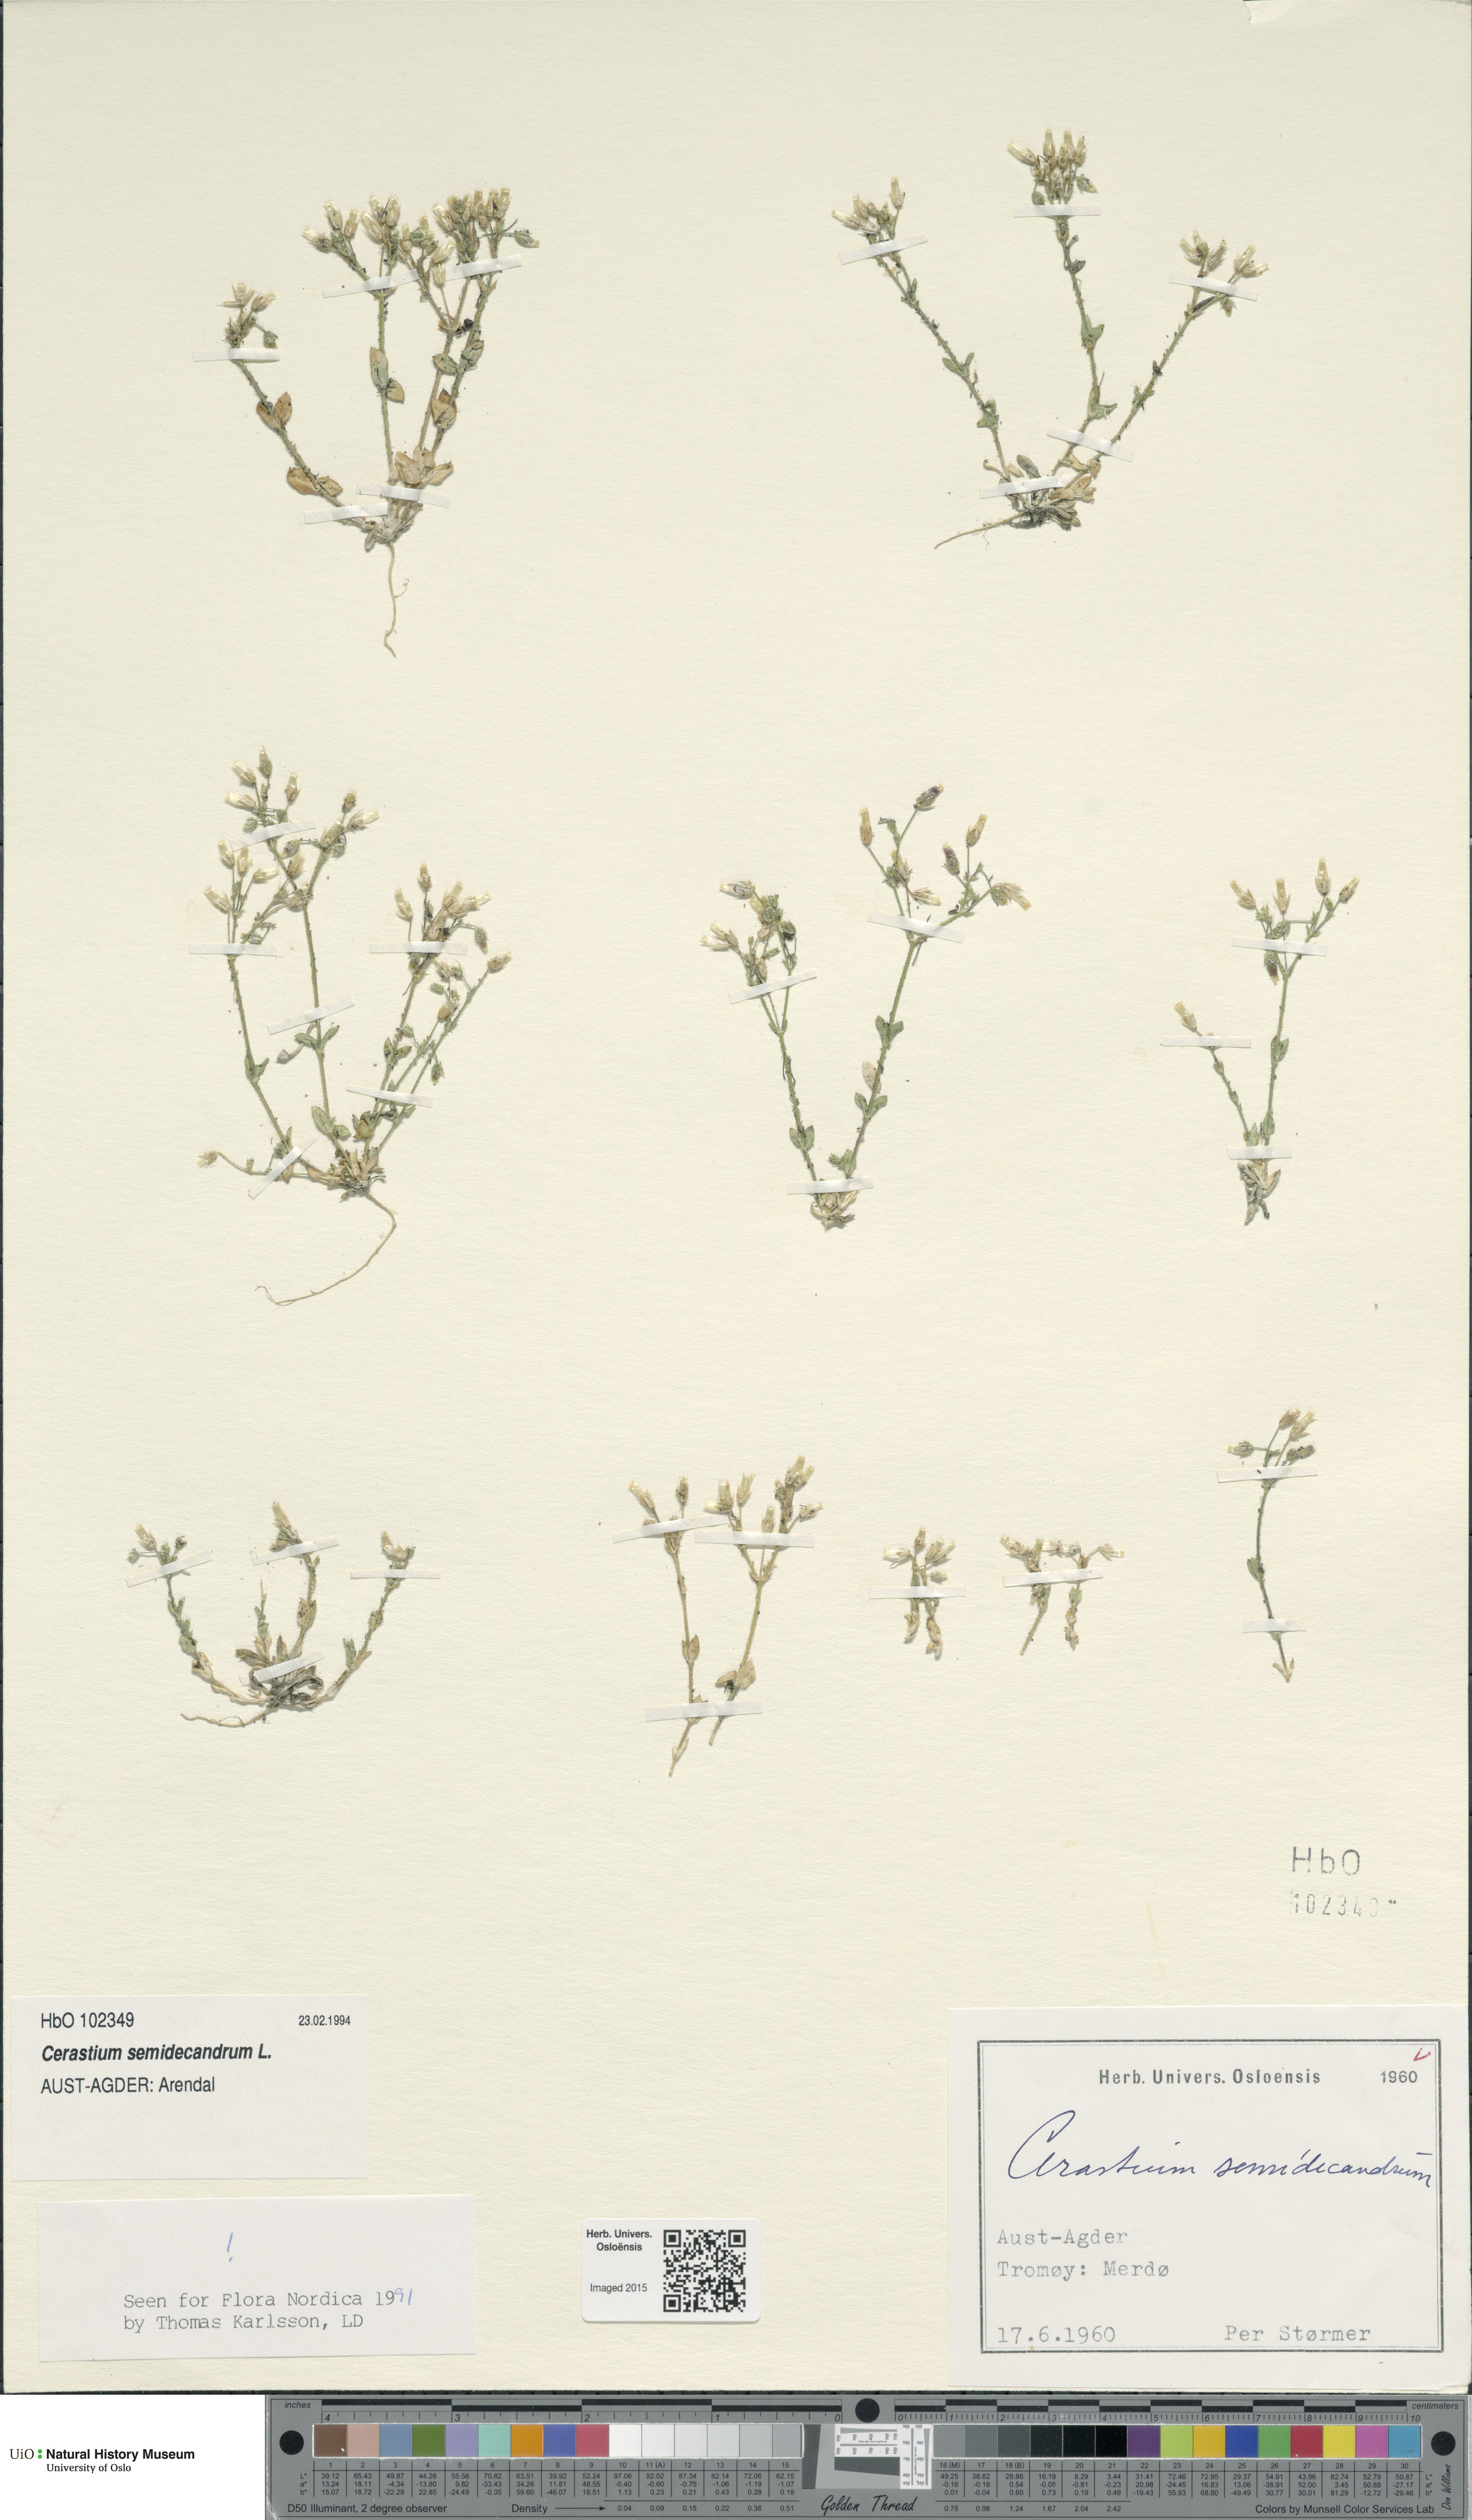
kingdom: Plantae
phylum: Tracheophyta
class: Magnoliopsida
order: Caryophyllales
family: Caryophyllaceae
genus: Cerastium
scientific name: Cerastium semidecandrum
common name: Little mouse-ear
